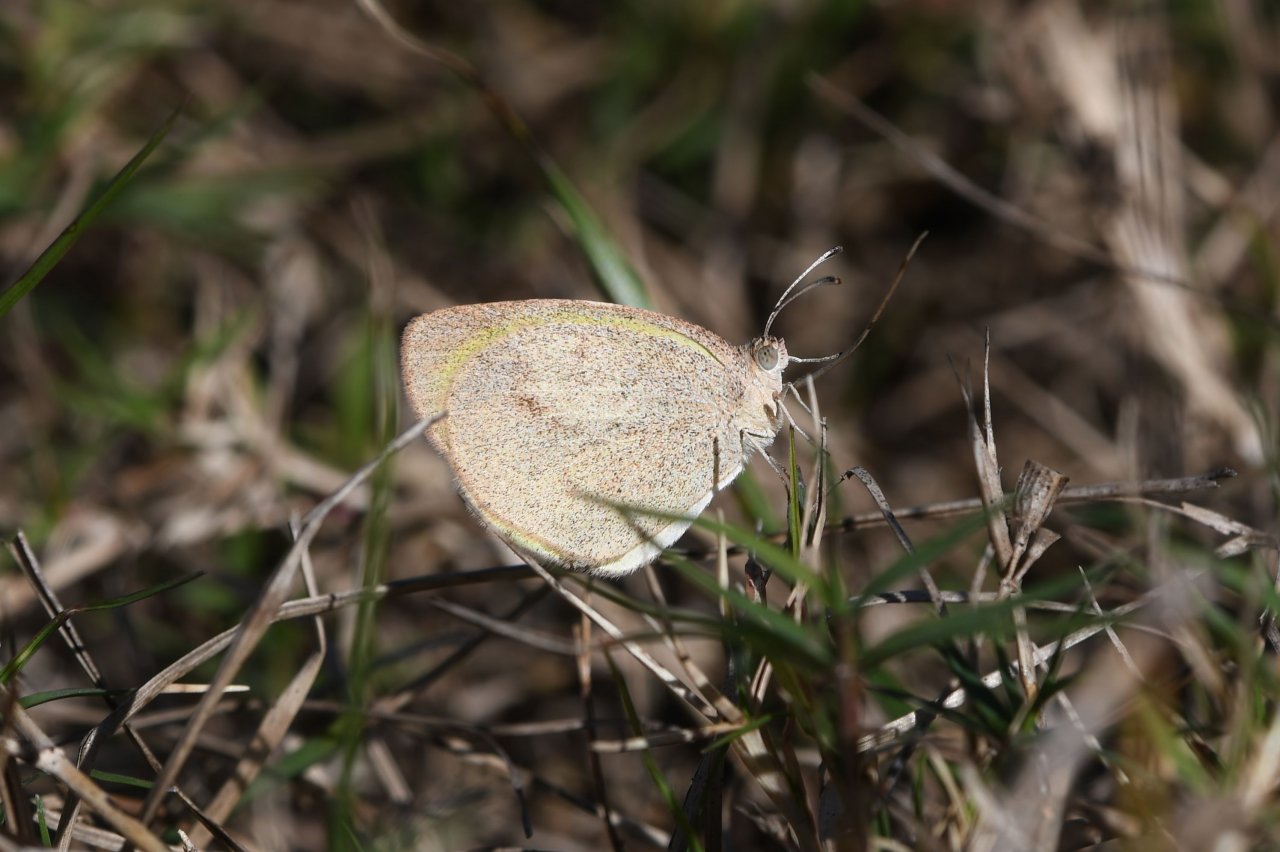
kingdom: Animalia
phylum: Arthropoda
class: Insecta
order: Lepidoptera
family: Pieridae
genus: Eurema
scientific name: Eurema daira
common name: Barred Yellow
